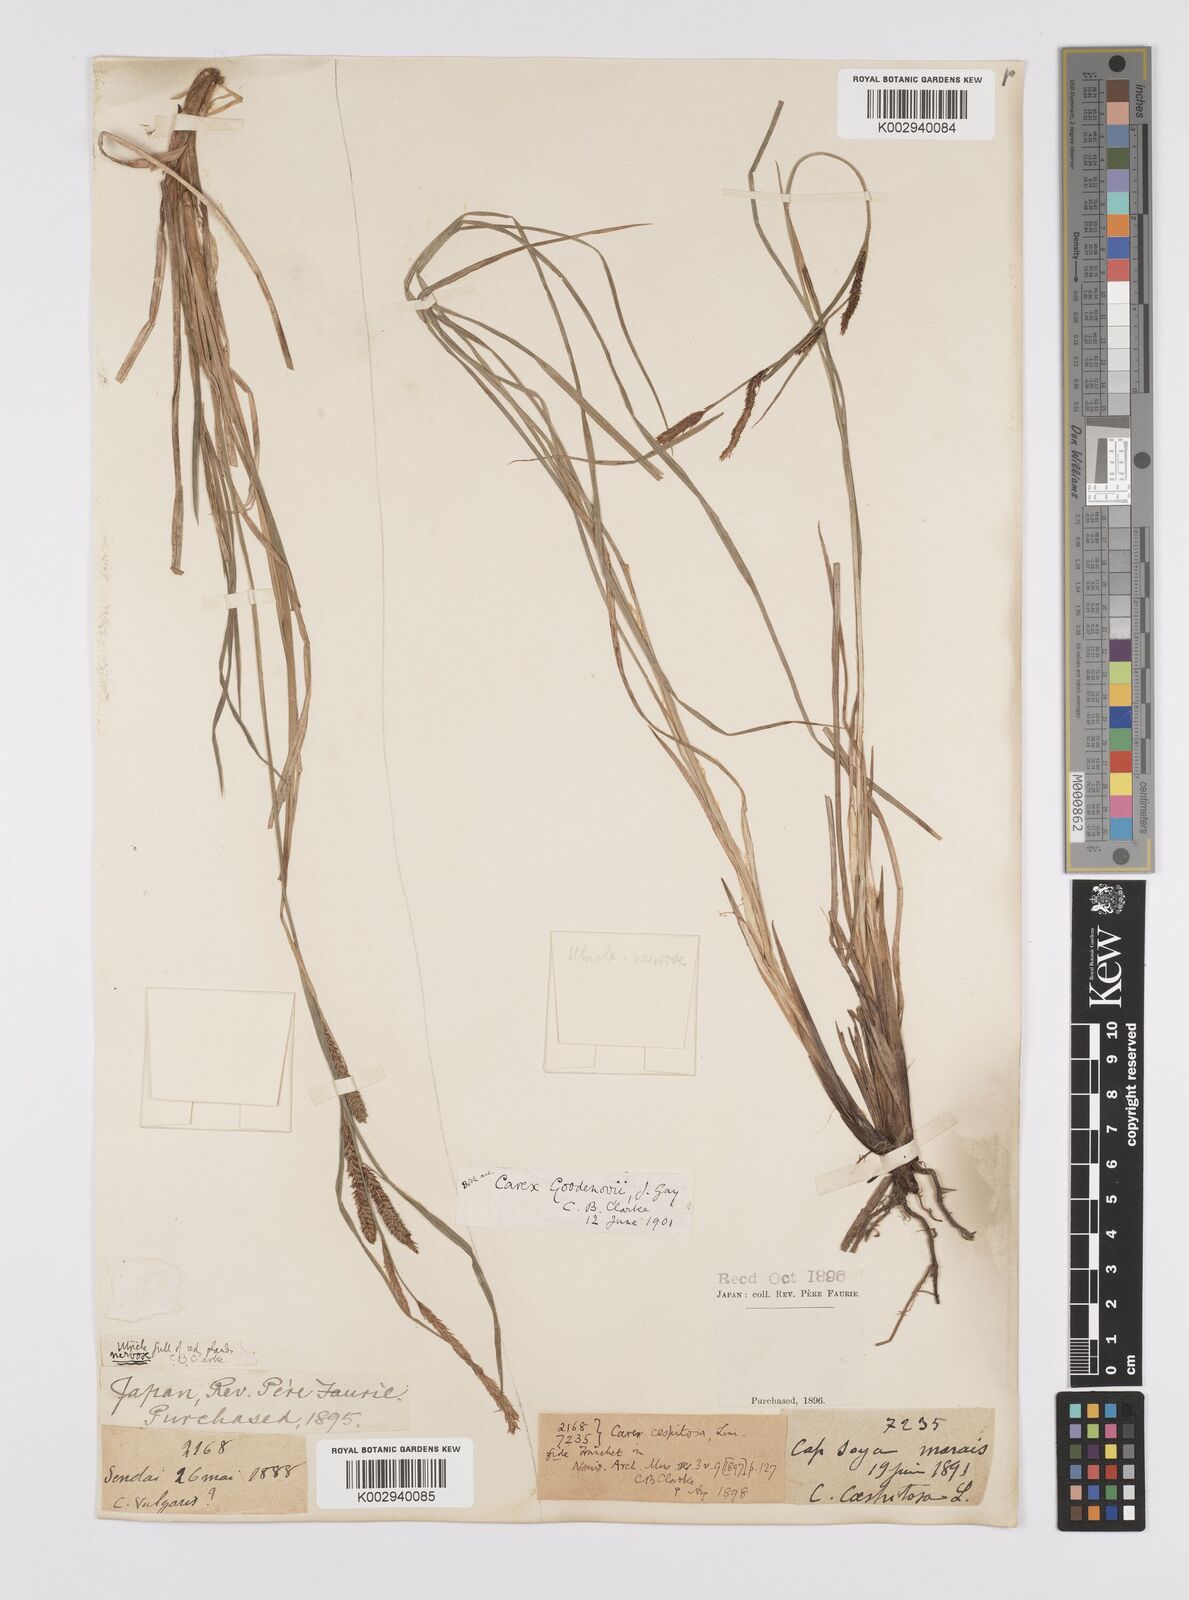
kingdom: Plantae
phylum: Tracheophyta
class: Liliopsida
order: Poales
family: Cyperaceae
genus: Carex
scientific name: Carex thunbergii
